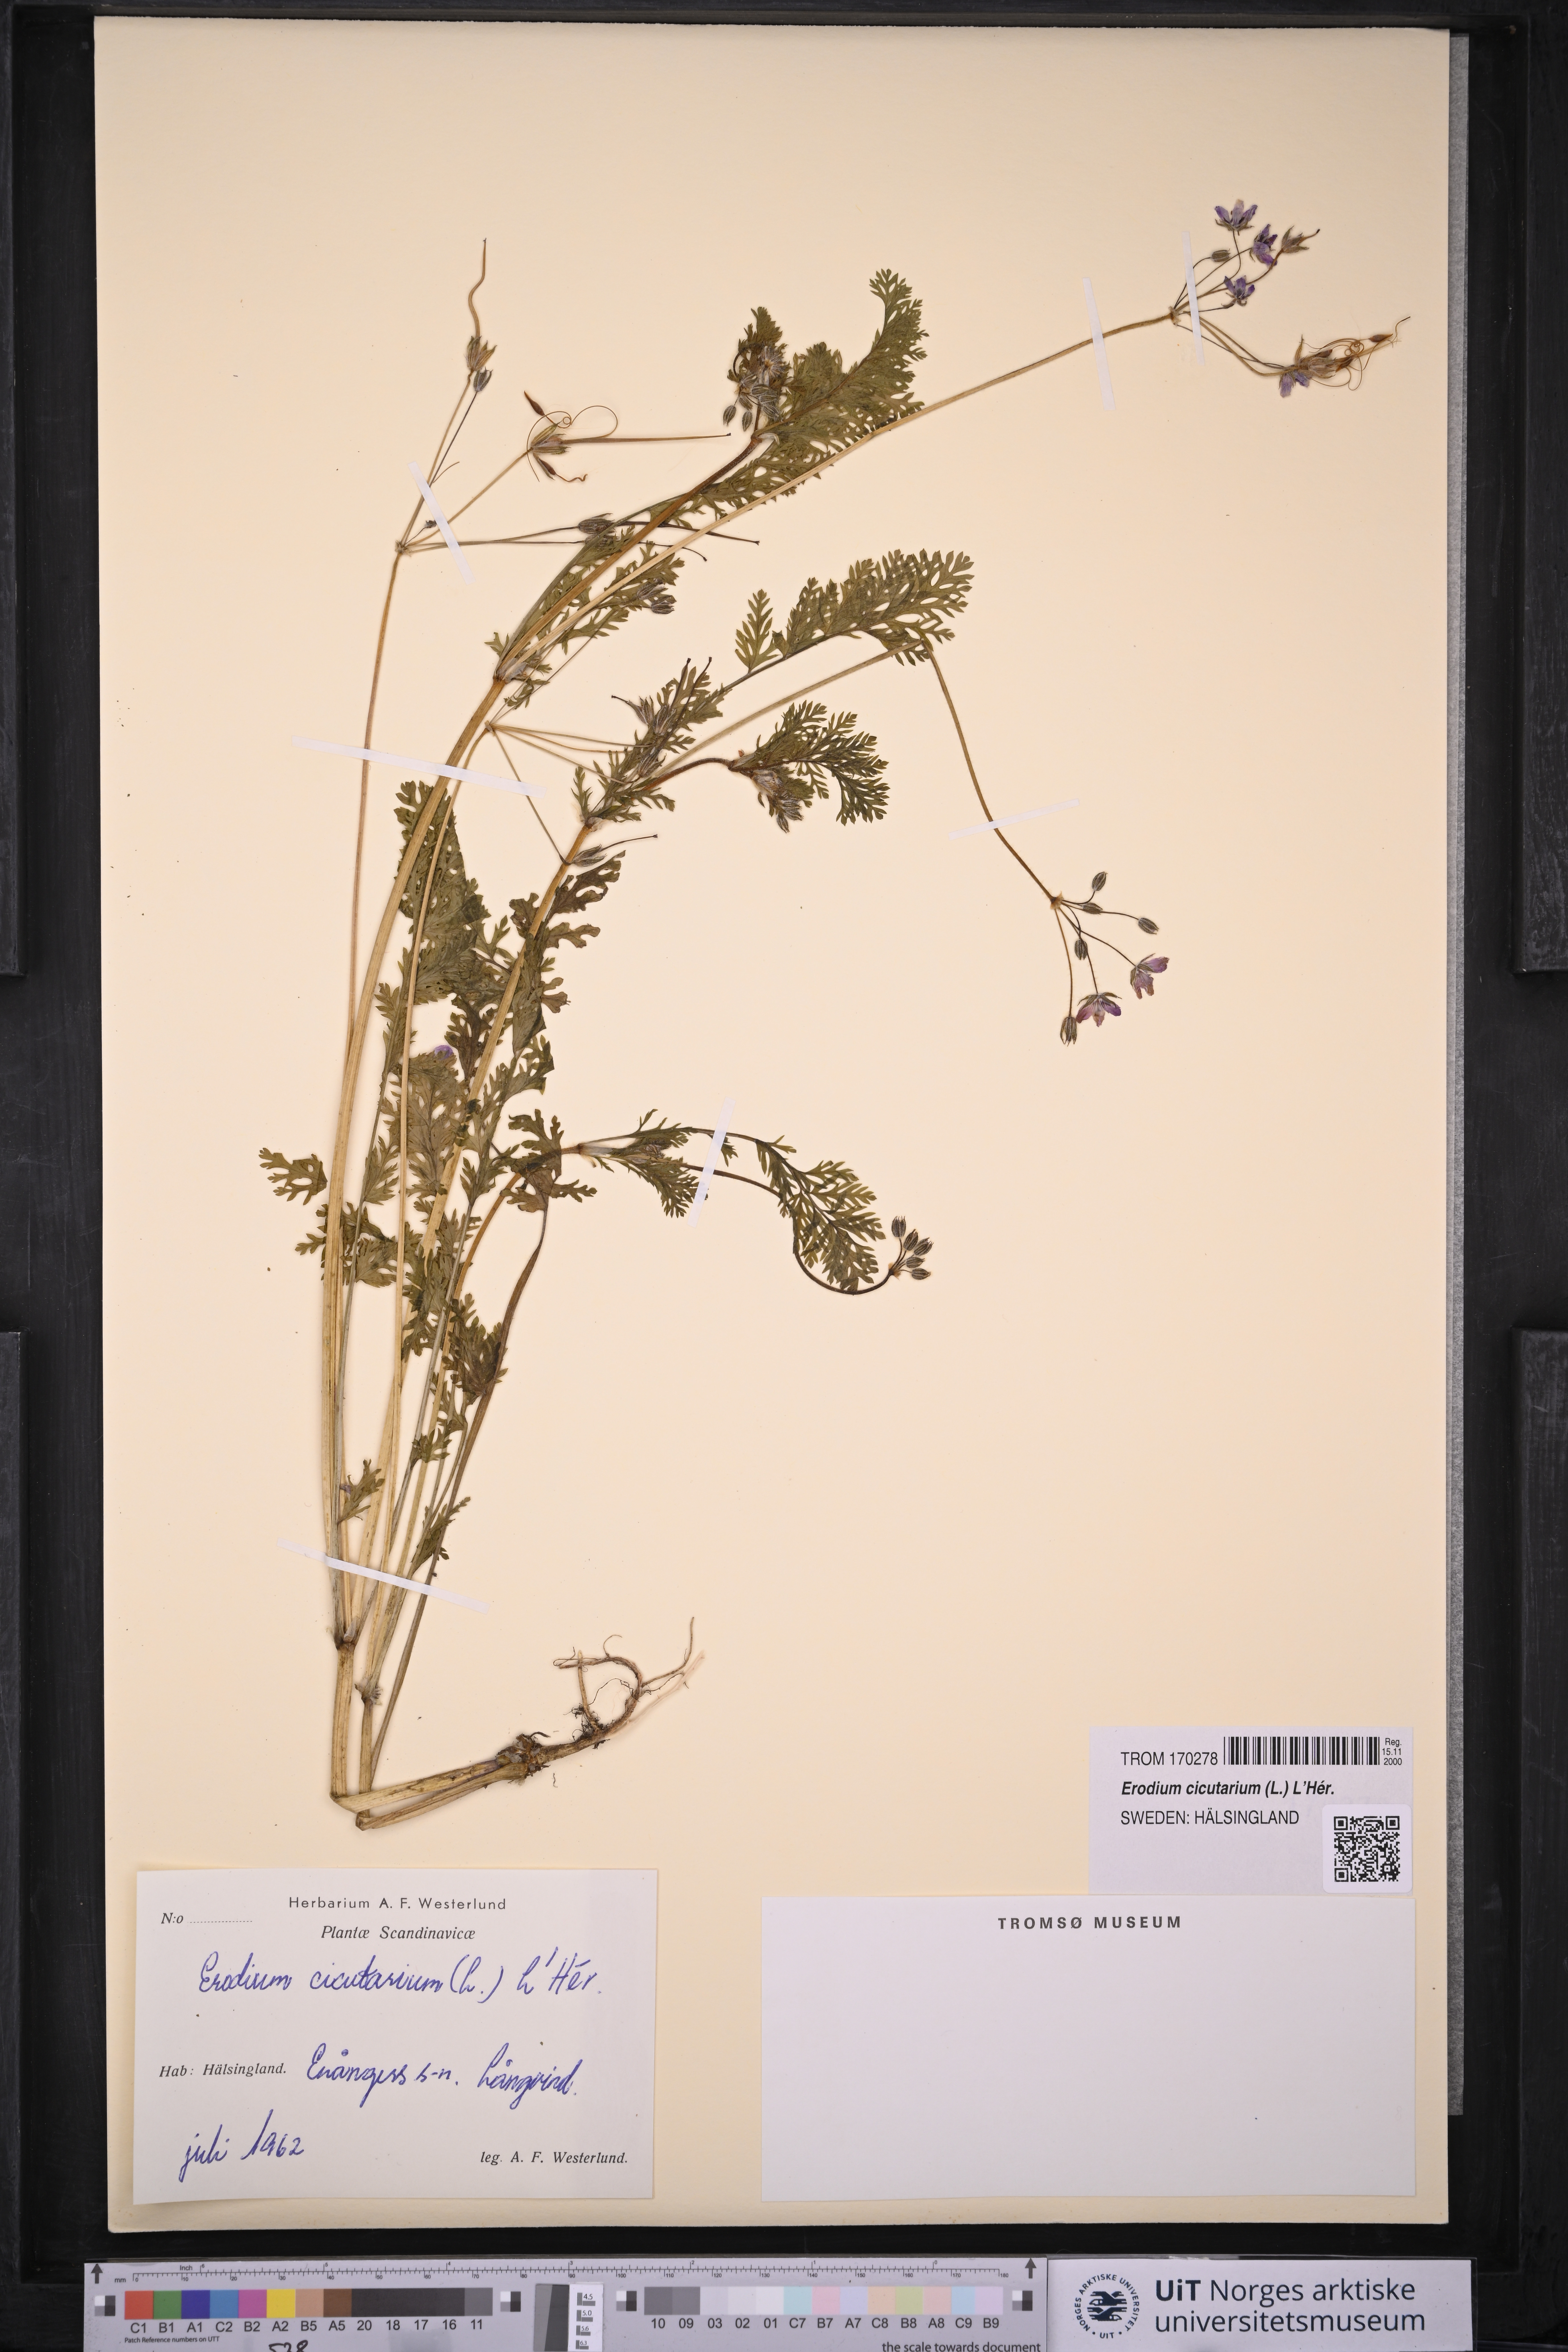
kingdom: Plantae
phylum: Tracheophyta
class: Magnoliopsida
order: Geraniales
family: Geraniaceae
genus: Erodium
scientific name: Erodium cicutarium
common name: Common stork's-bill
